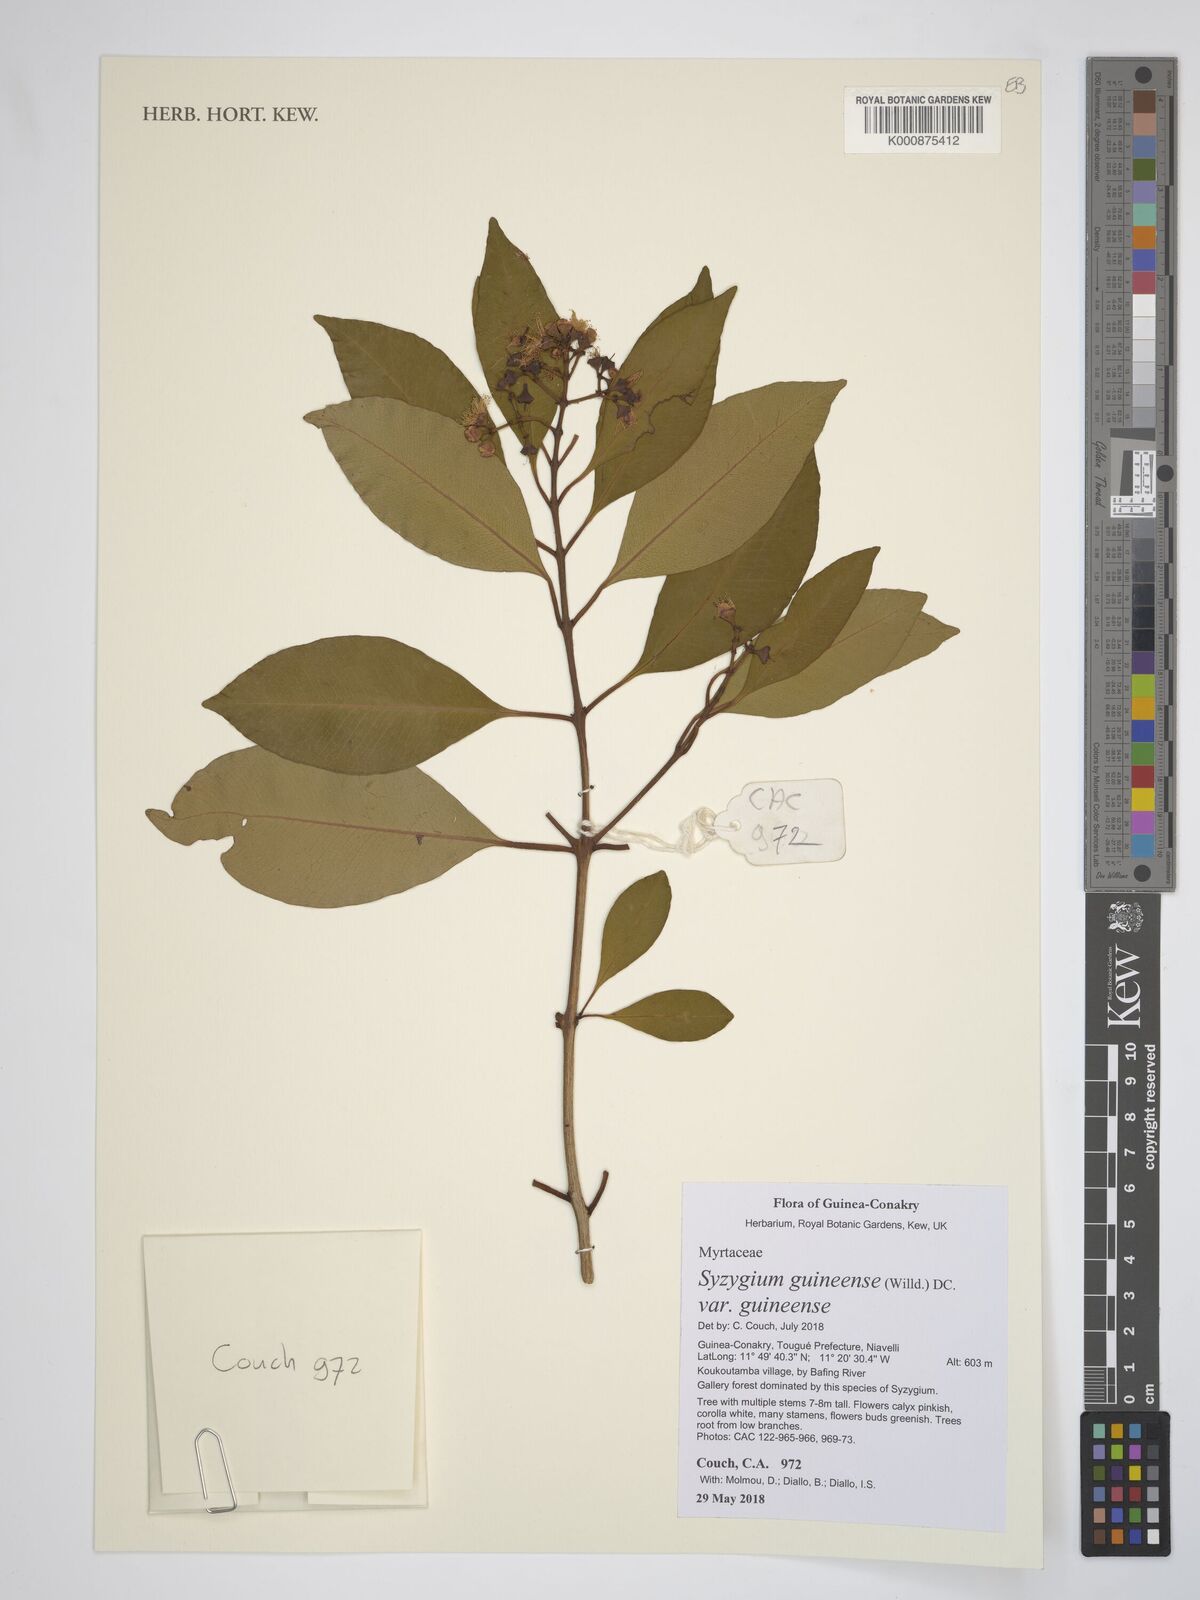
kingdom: Plantae
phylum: Tracheophyta
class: Magnoliopsida
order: Myrtales
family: Myrtaceae
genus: Syzygium
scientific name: Syzygium guineense
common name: Water-pear
